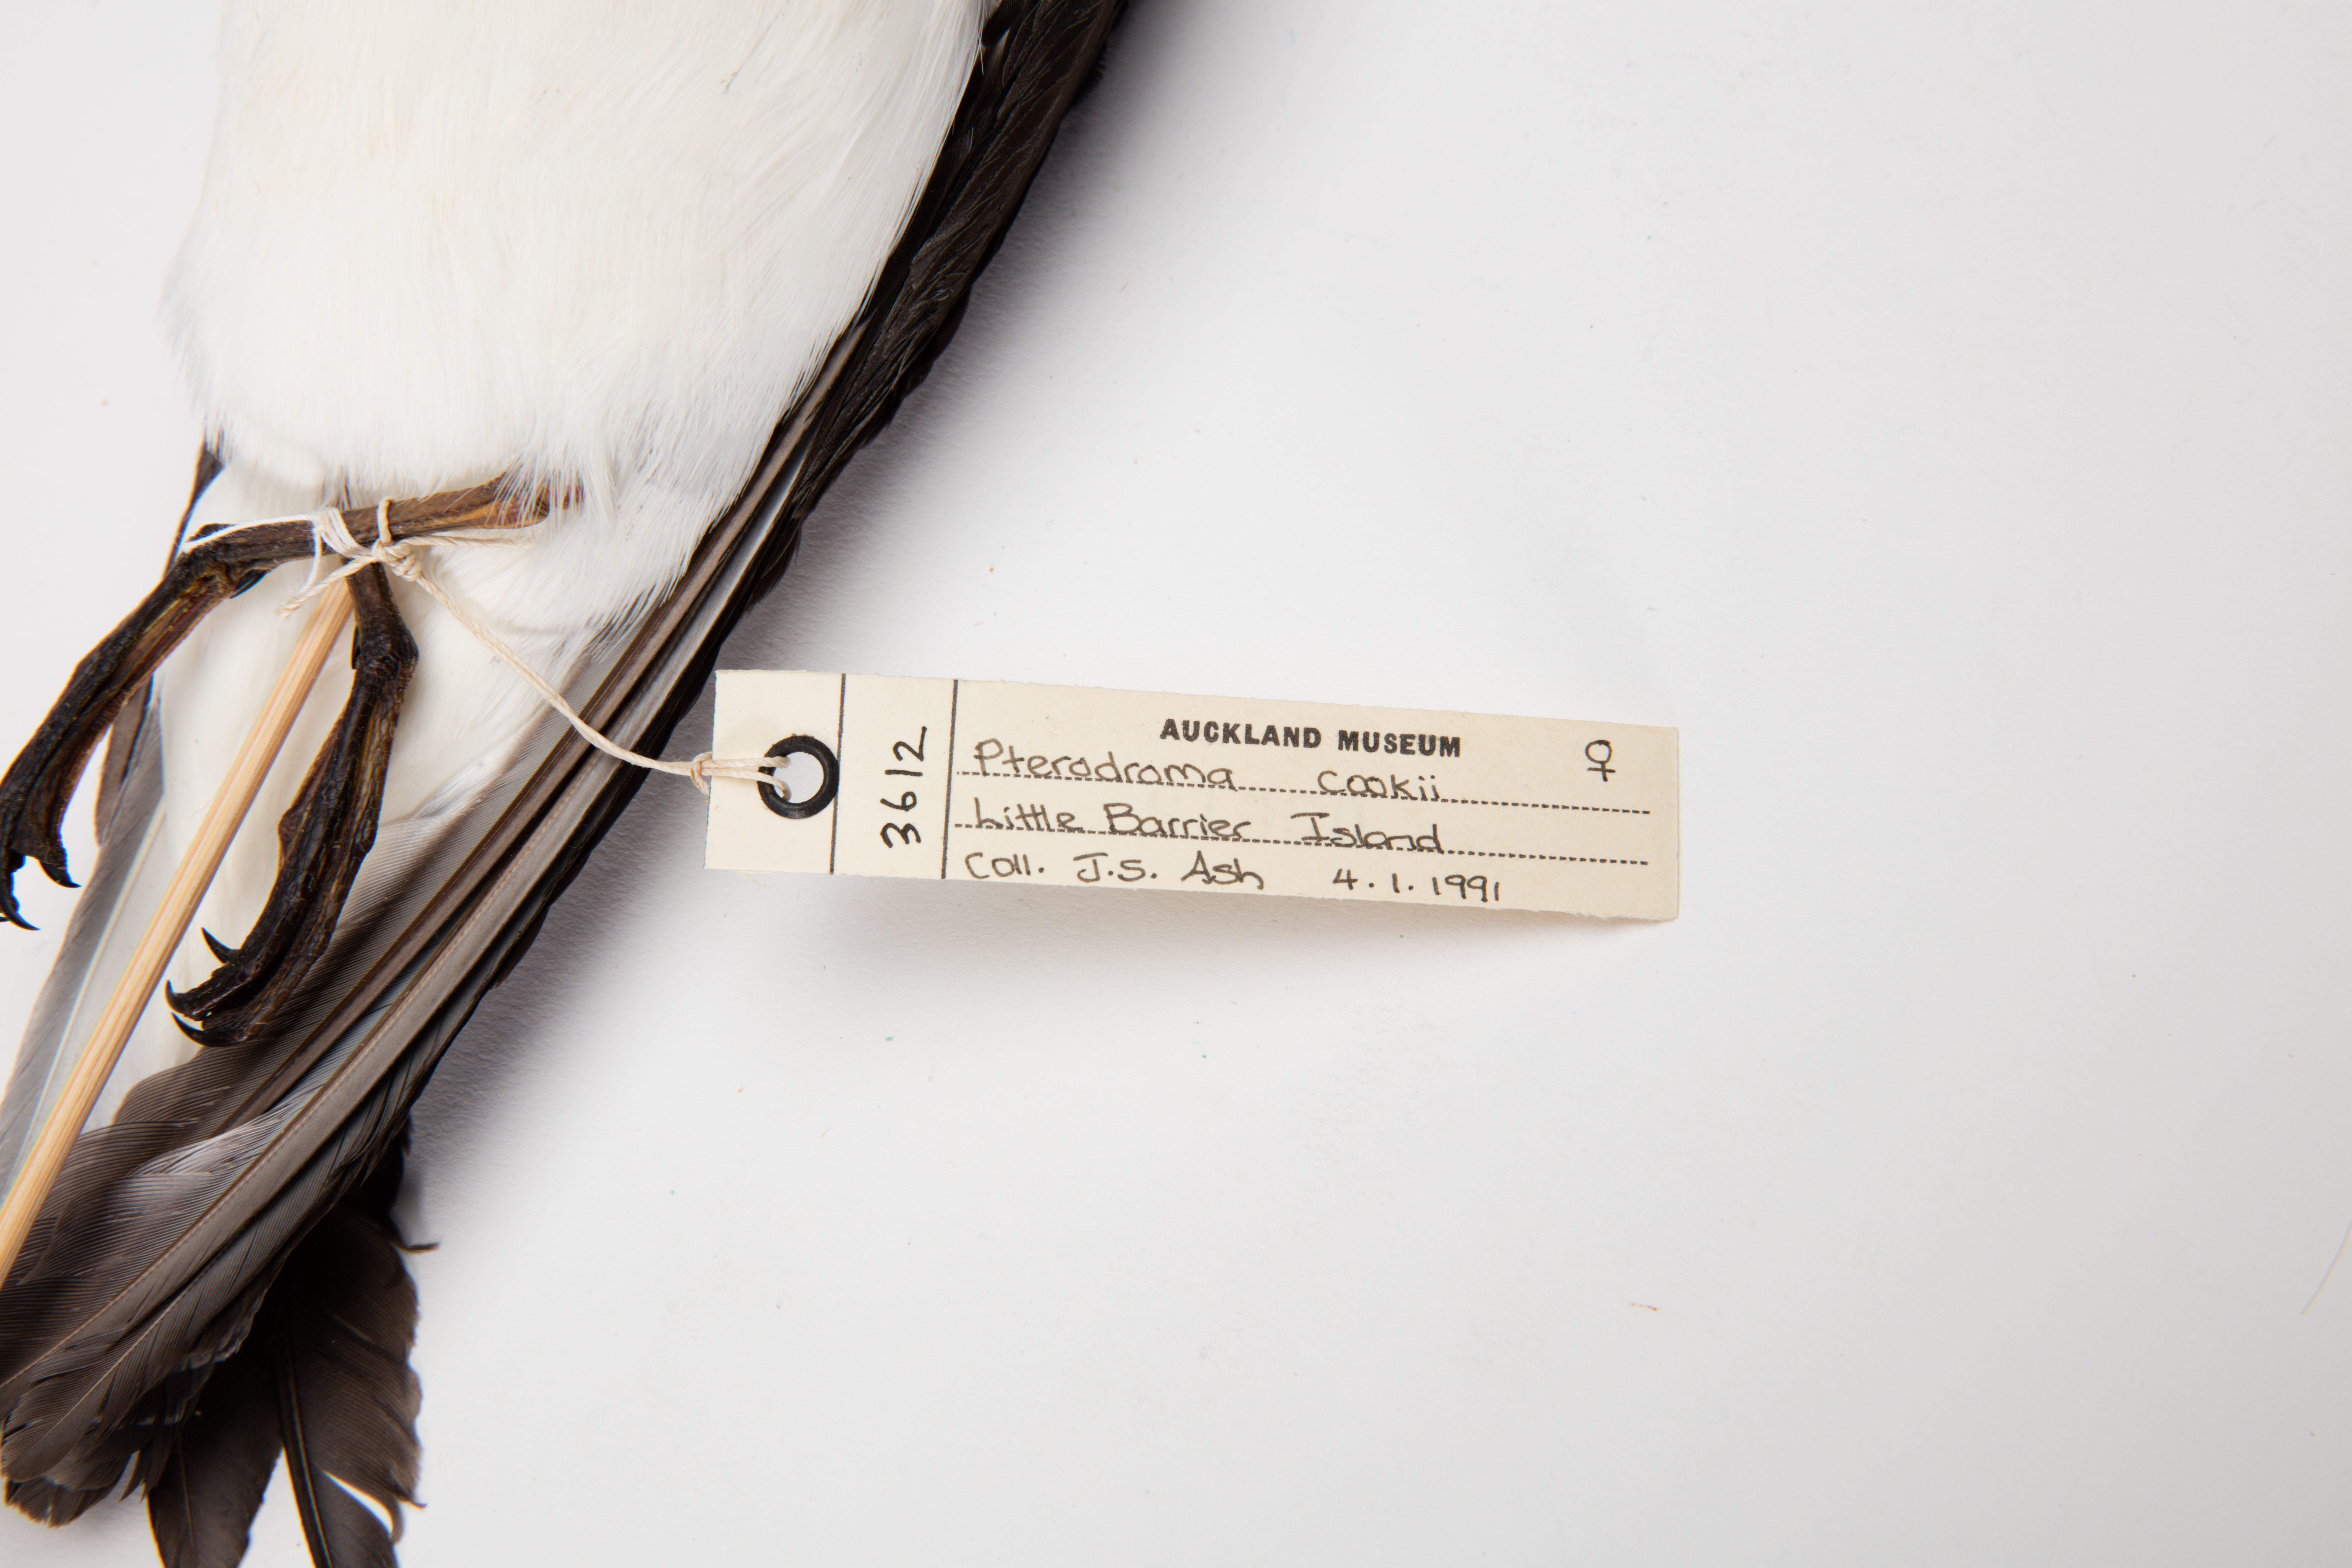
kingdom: Animalia
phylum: Chordata
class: Aves
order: Procellariiformes
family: Procellariidae
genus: Pterodroma
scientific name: Pterodroma cookii
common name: Cook's petrel
